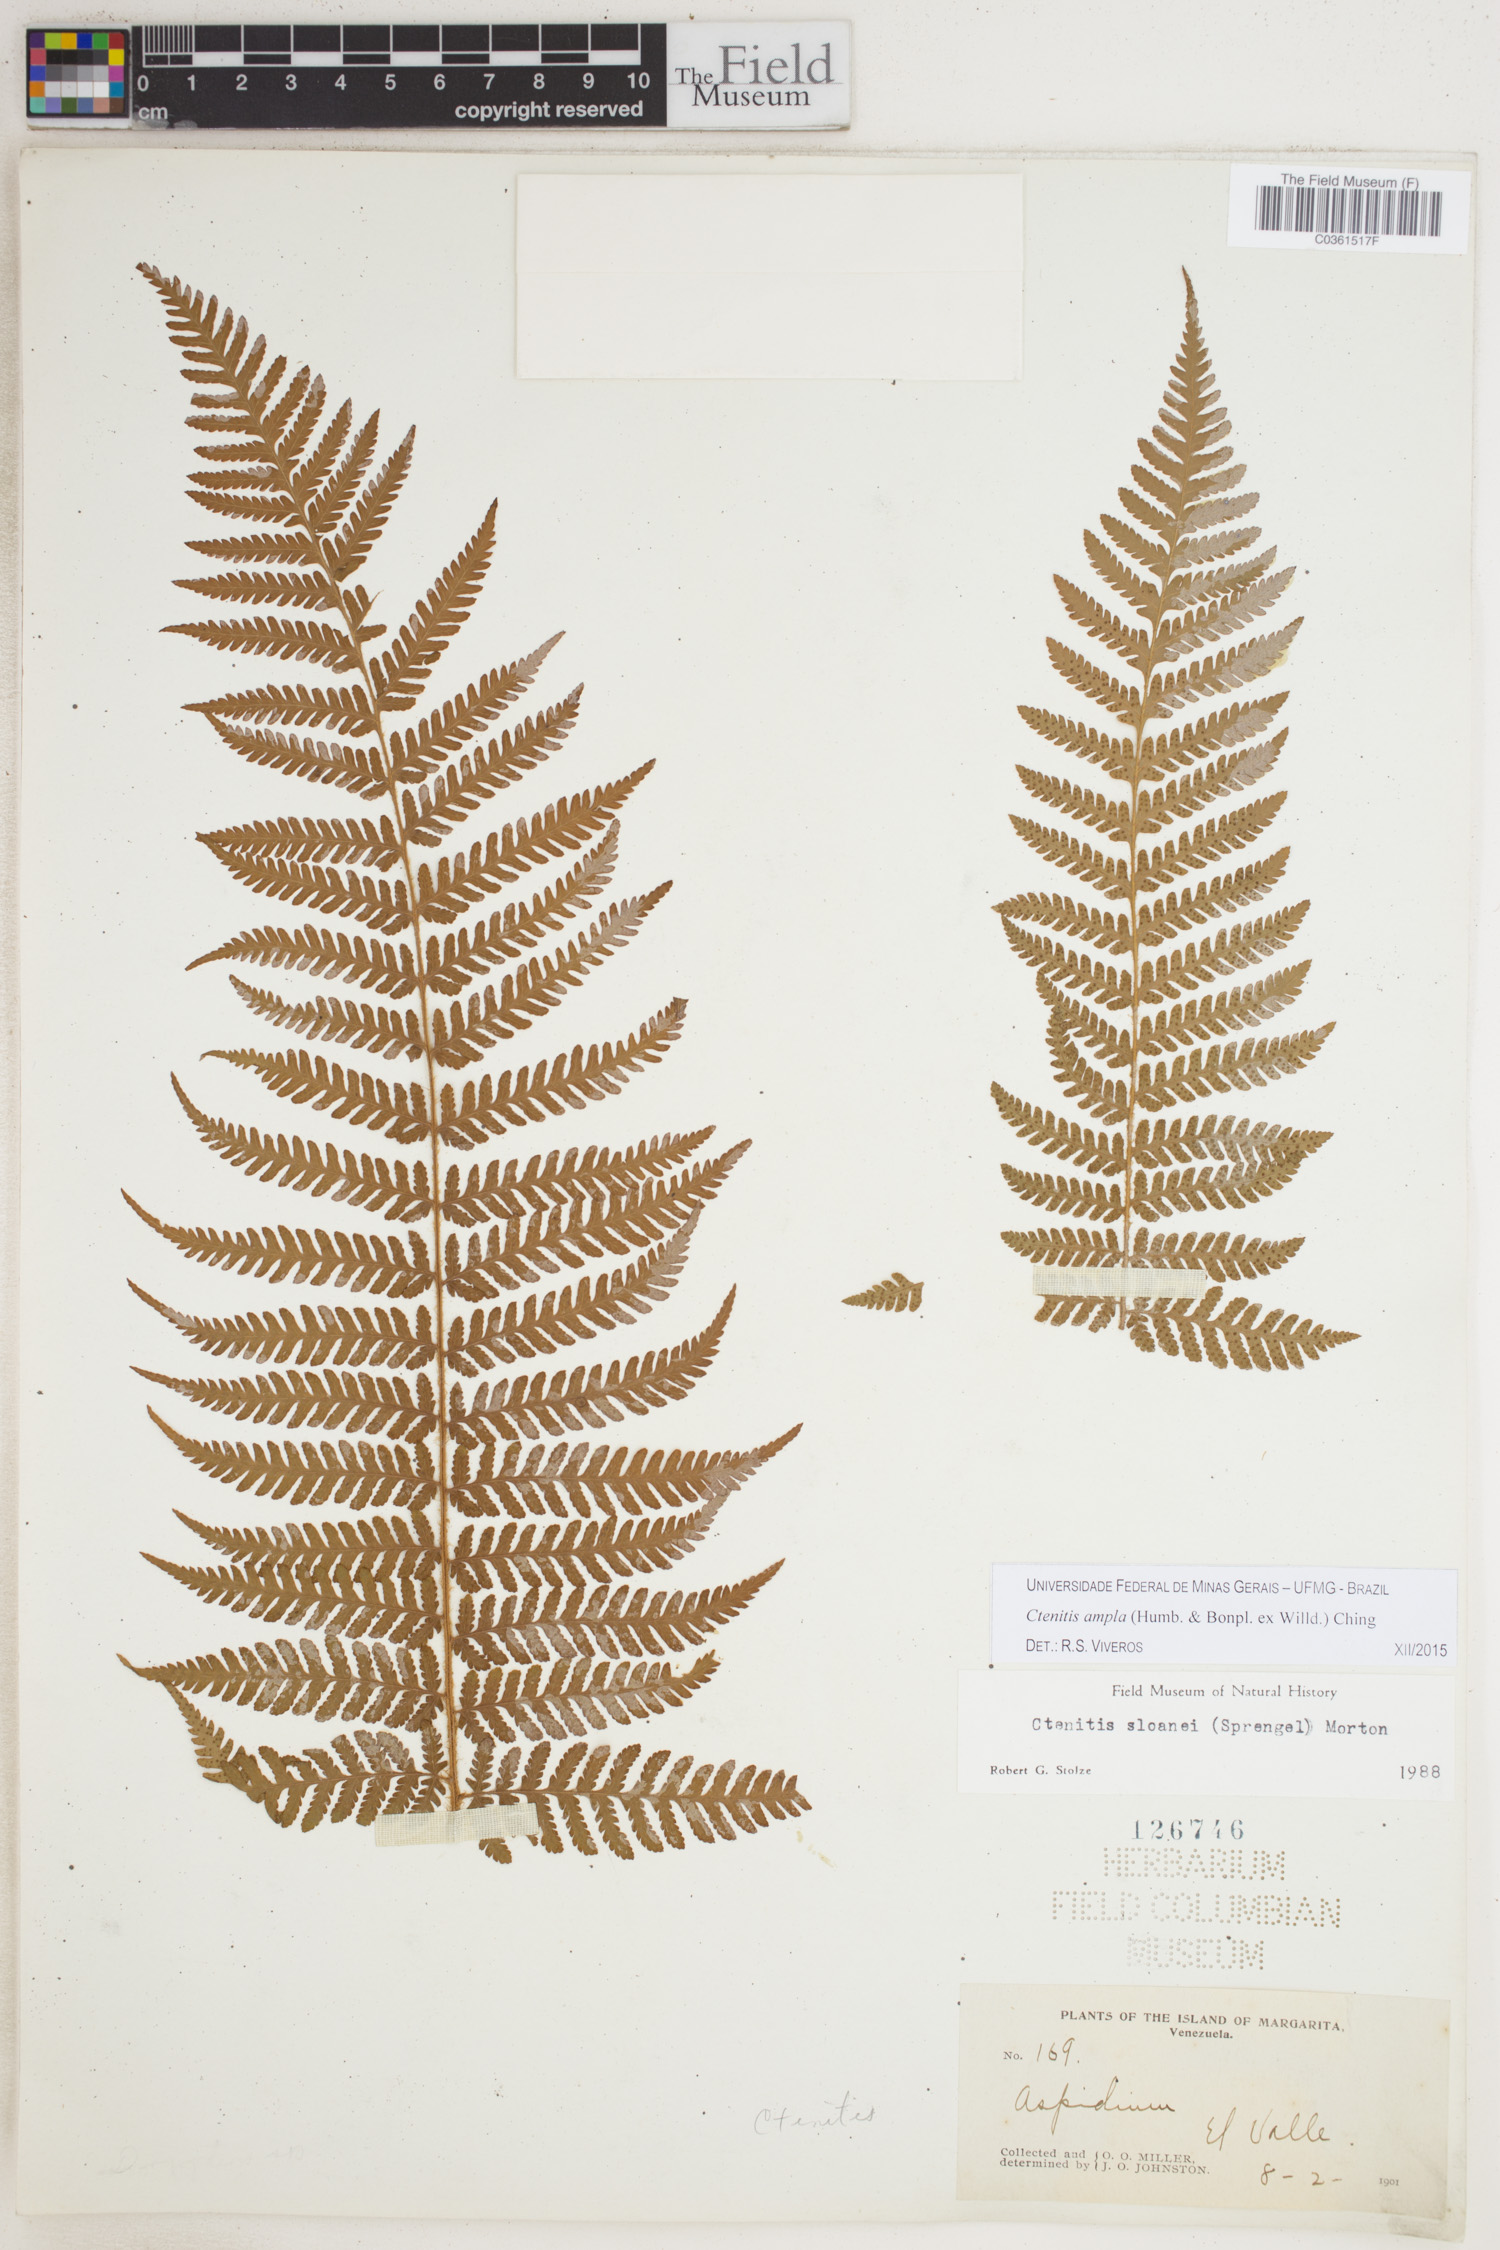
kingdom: Plantae
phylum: Tracheophyta
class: Polypodiopsida
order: Polypodiales
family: Dryopteridaceae
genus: Ctenitis
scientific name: Ctenitis sloanei
